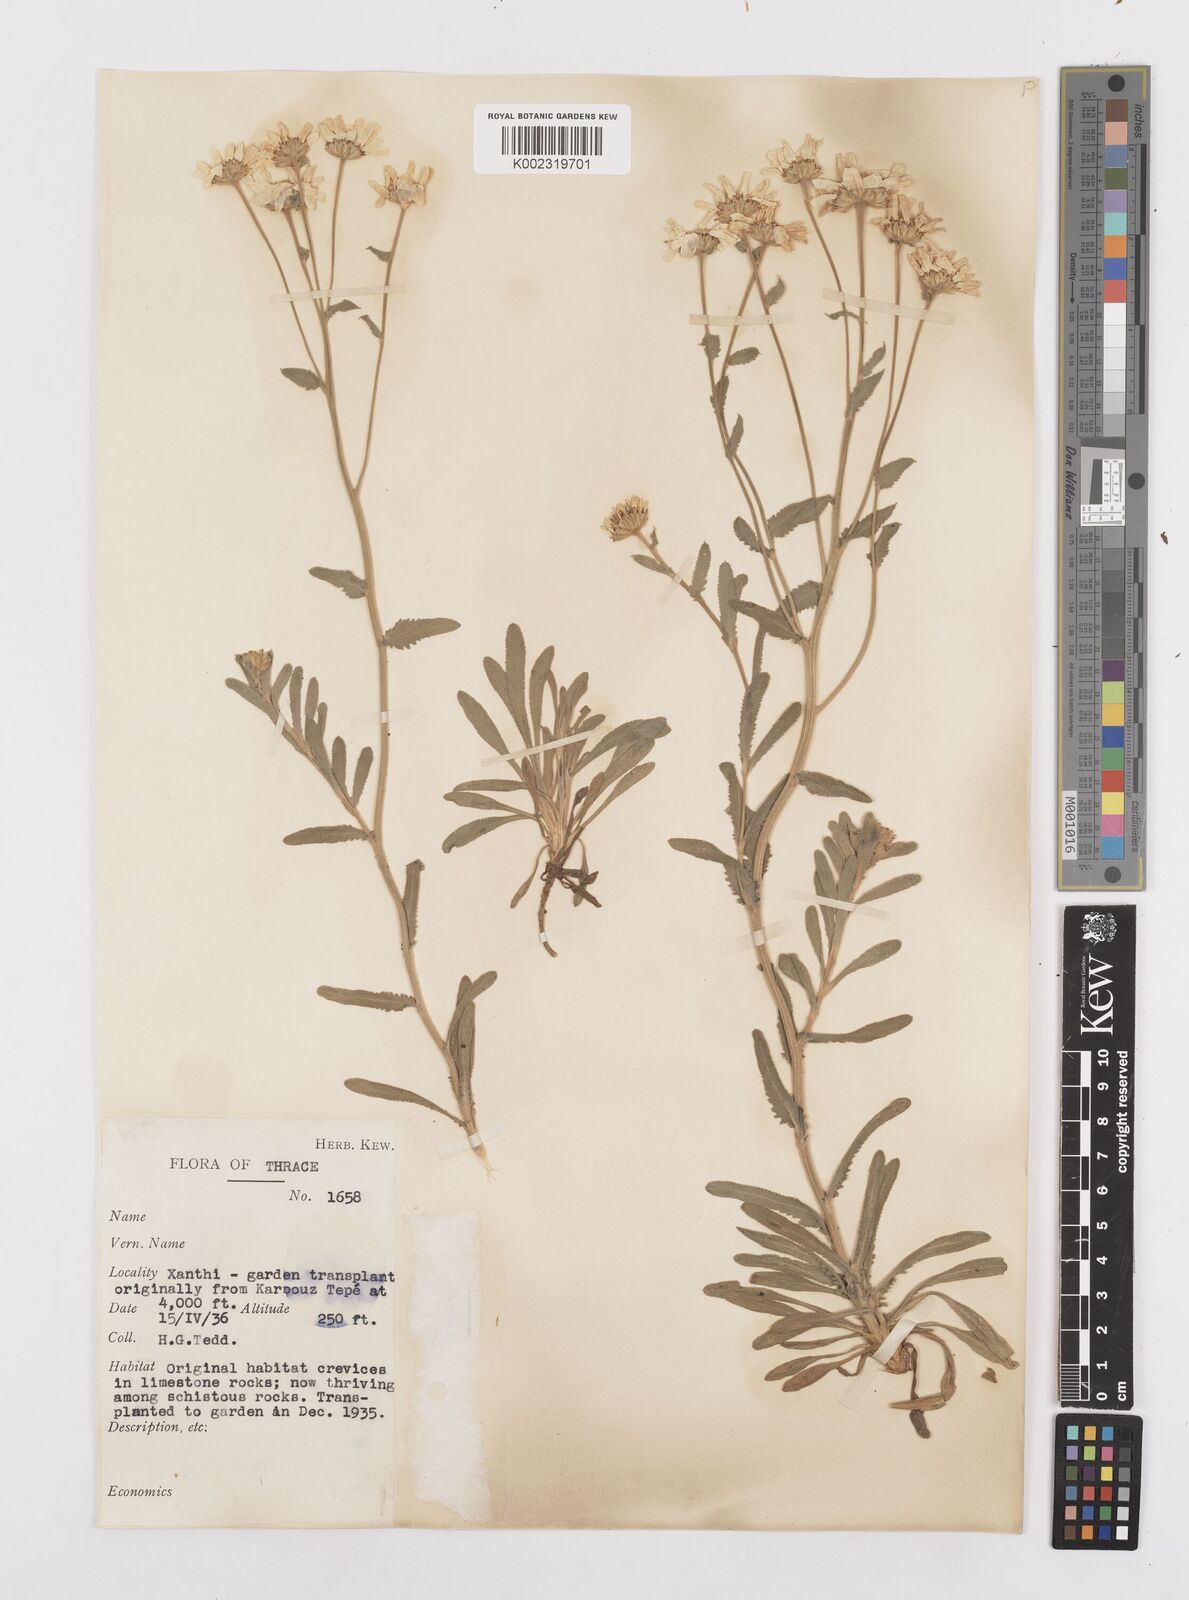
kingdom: Plantae
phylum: Tracheophyta
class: Magnoliopsida
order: Asterales
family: Asteraceae
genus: Achillea
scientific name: Achillea ageratifolia
